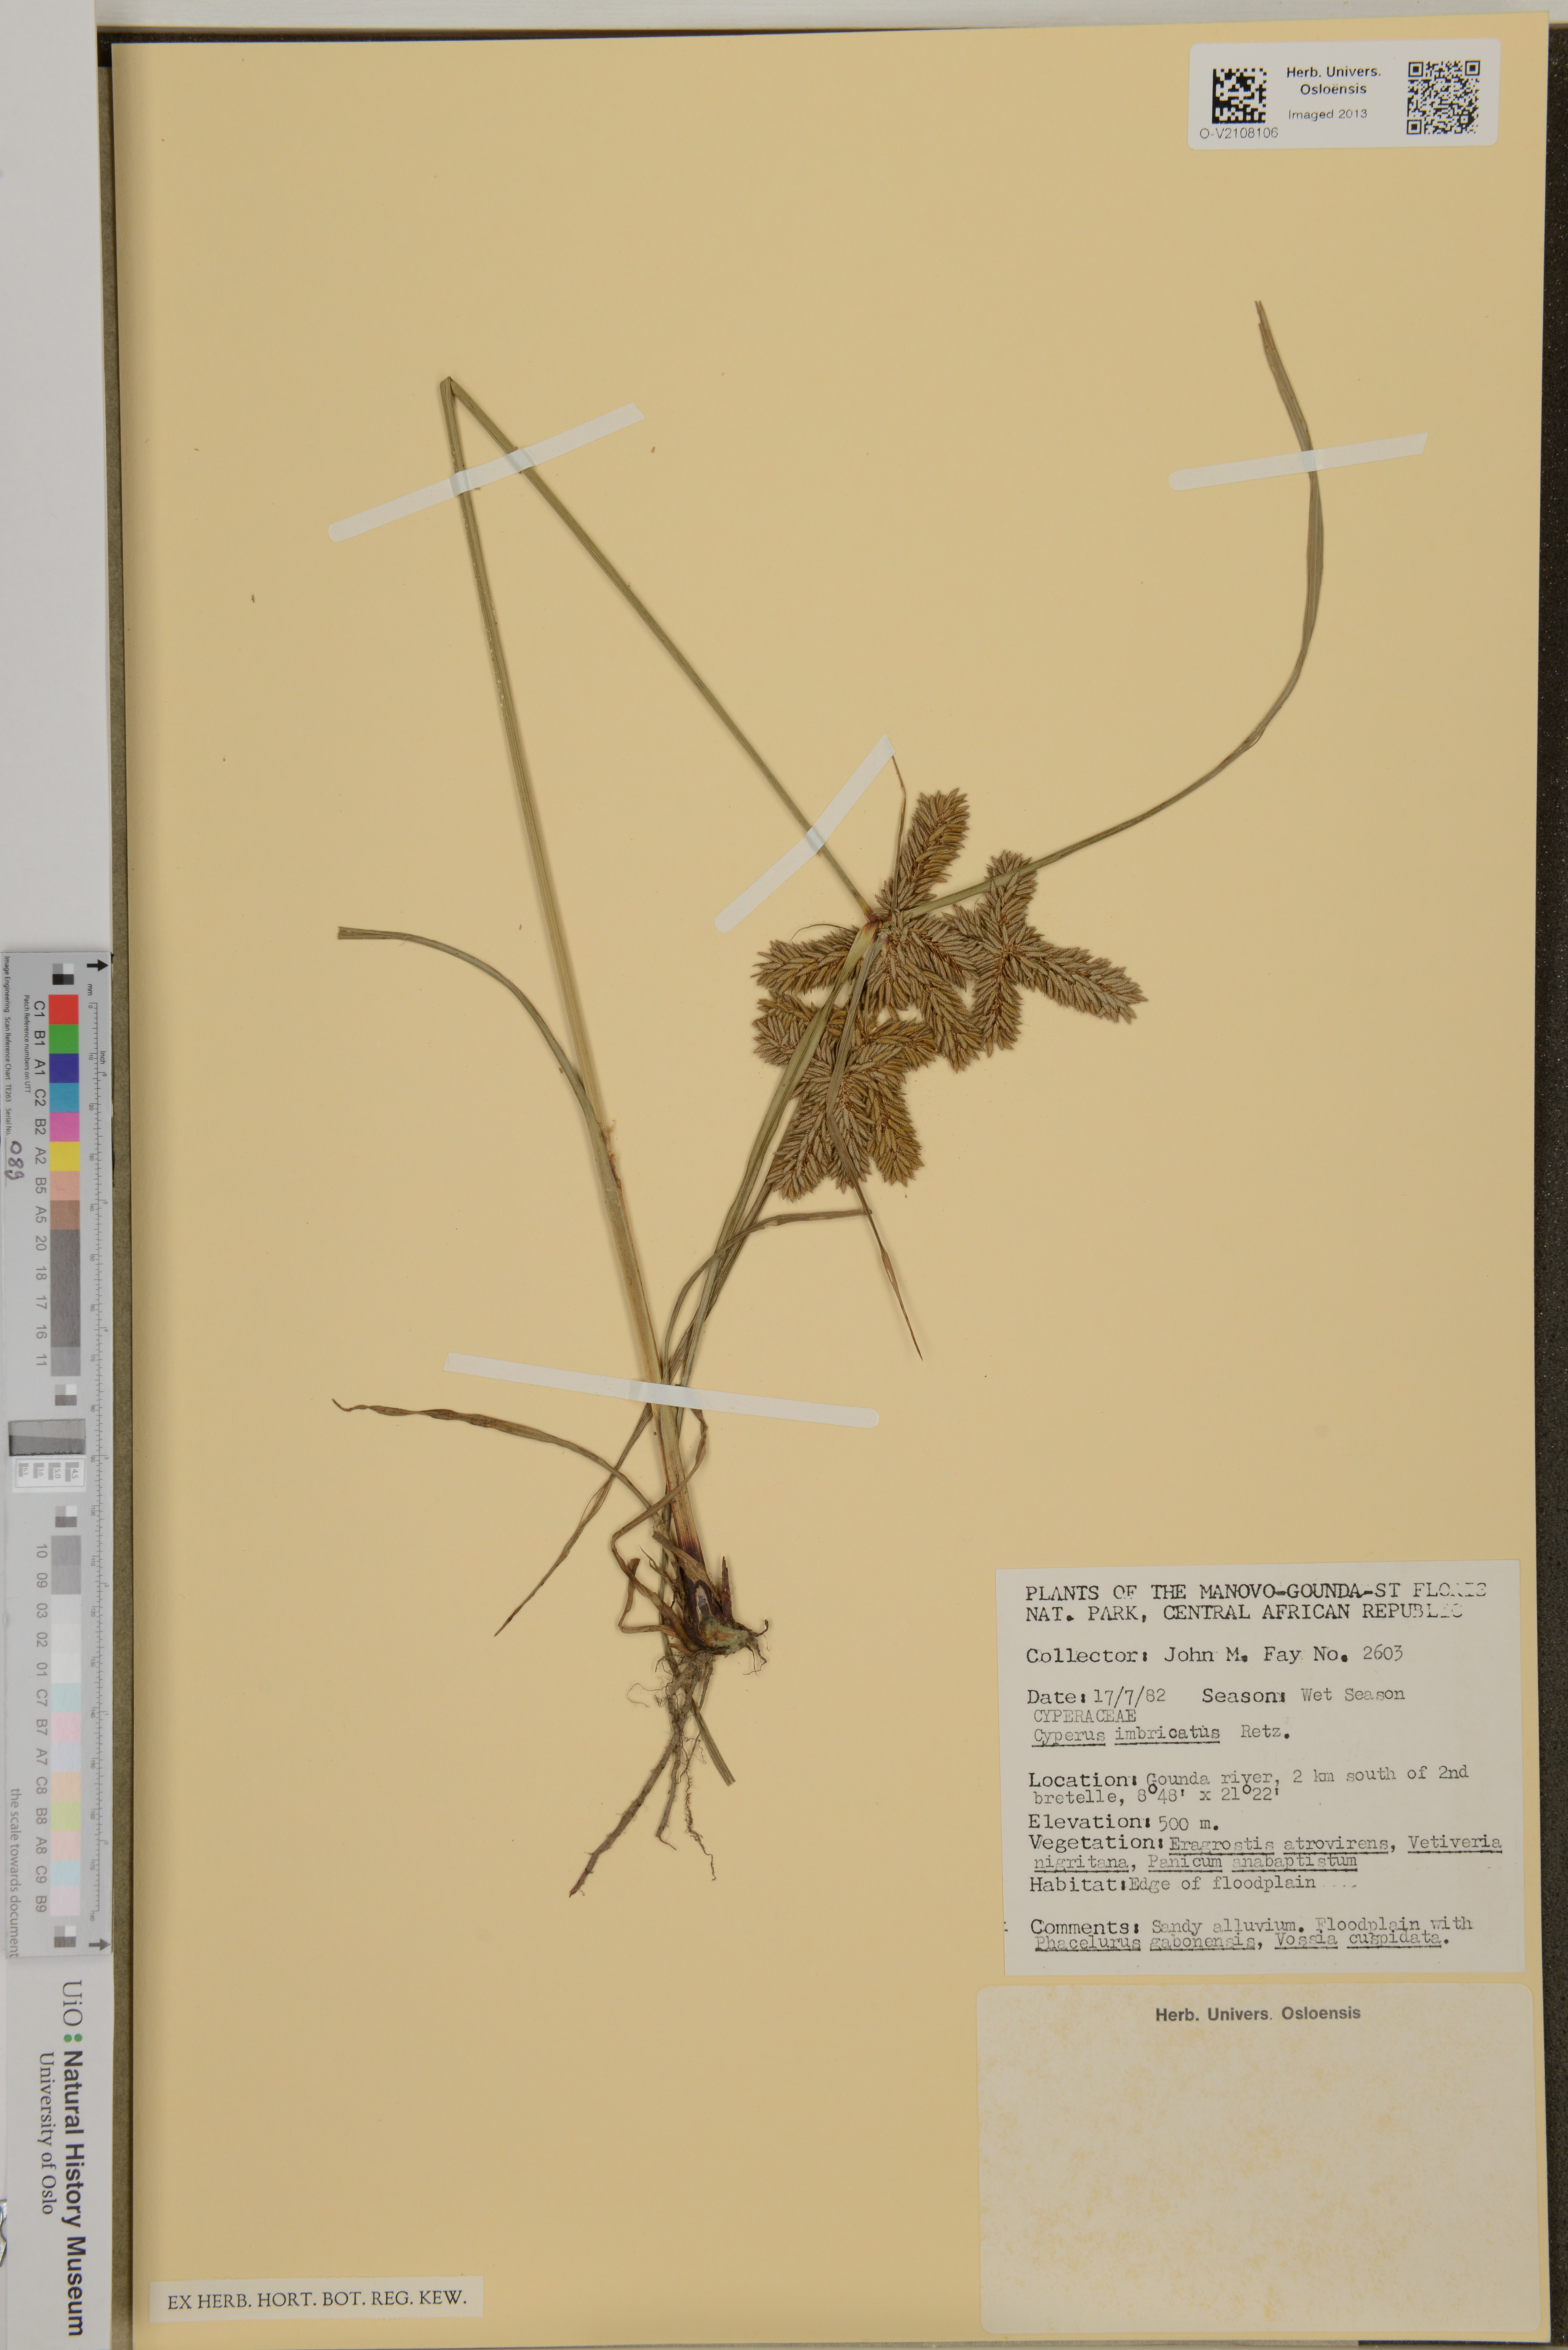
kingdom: Plantae
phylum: Tracheophyta
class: Liliopsida
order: Poales
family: Cyperaceae
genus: Cyperus
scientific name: Cyperus imbricatus
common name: Shingle flatsedge
